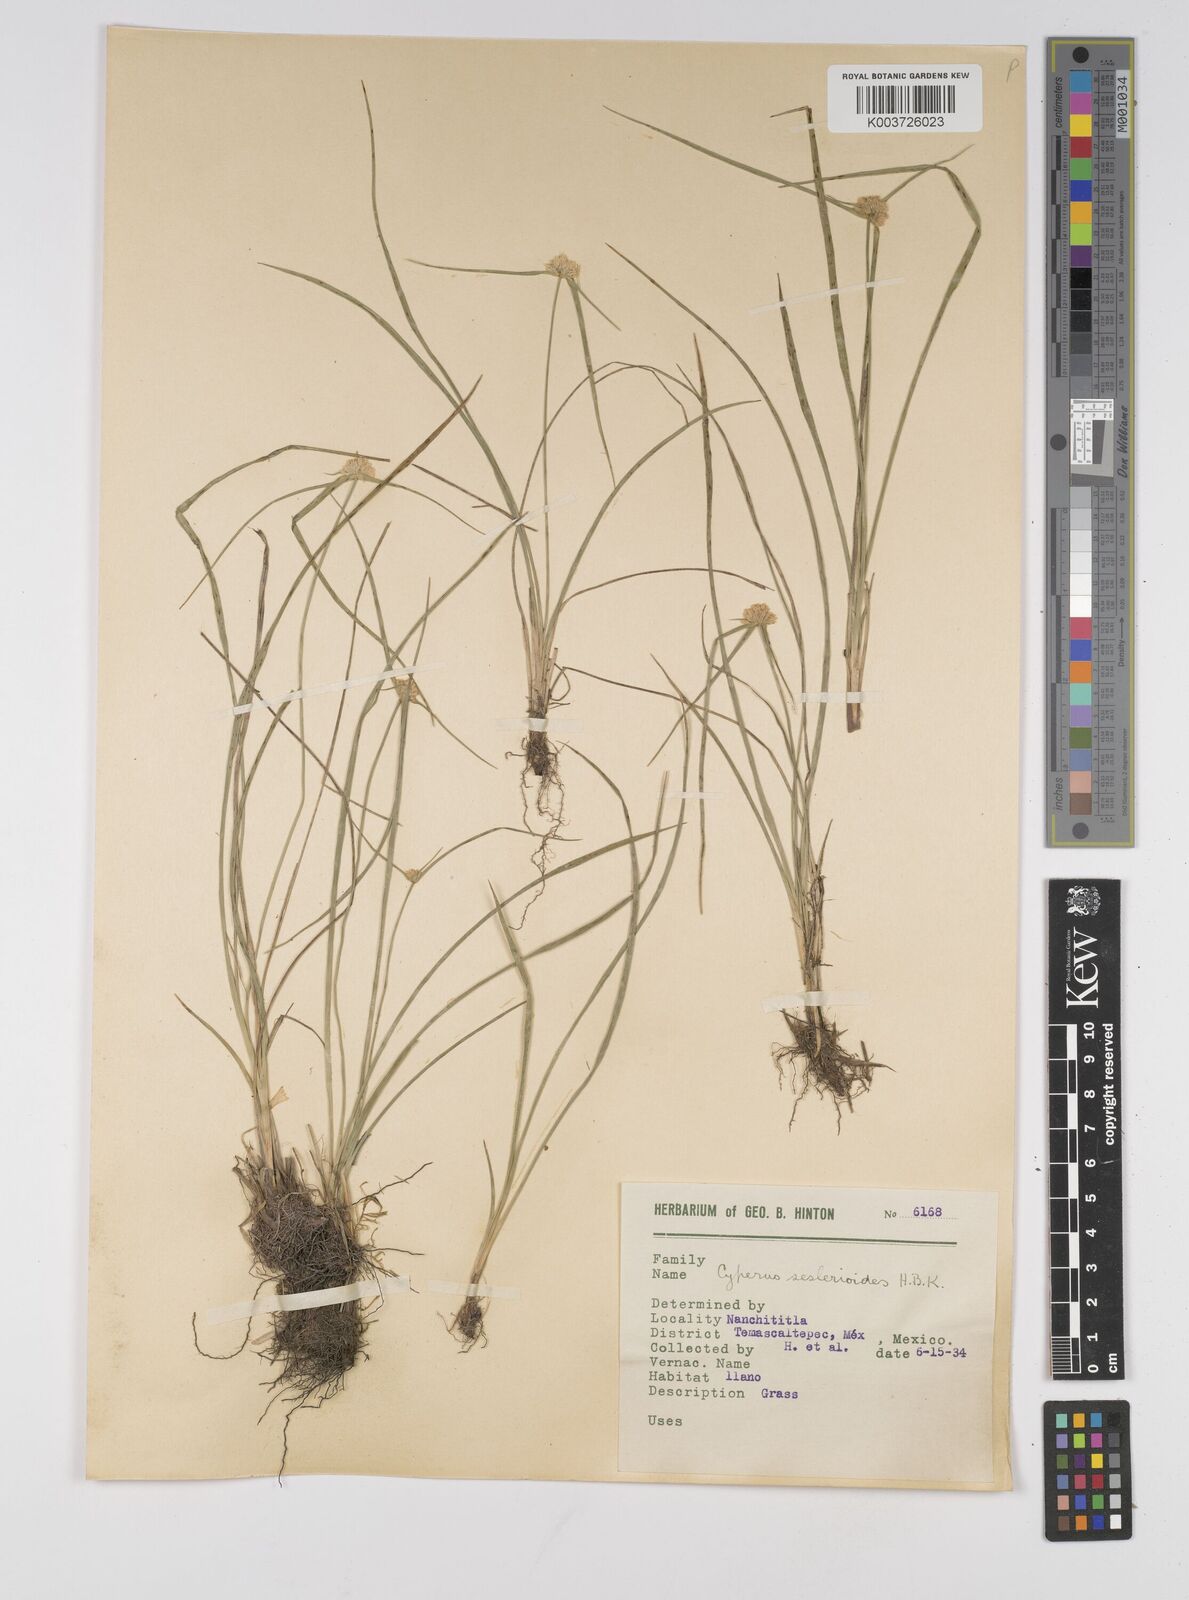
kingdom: Plantae
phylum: Tracheophyta
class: Liliopsida
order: Poales
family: Cyperaceae
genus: Cyperus
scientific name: Cyperus seslerioides
